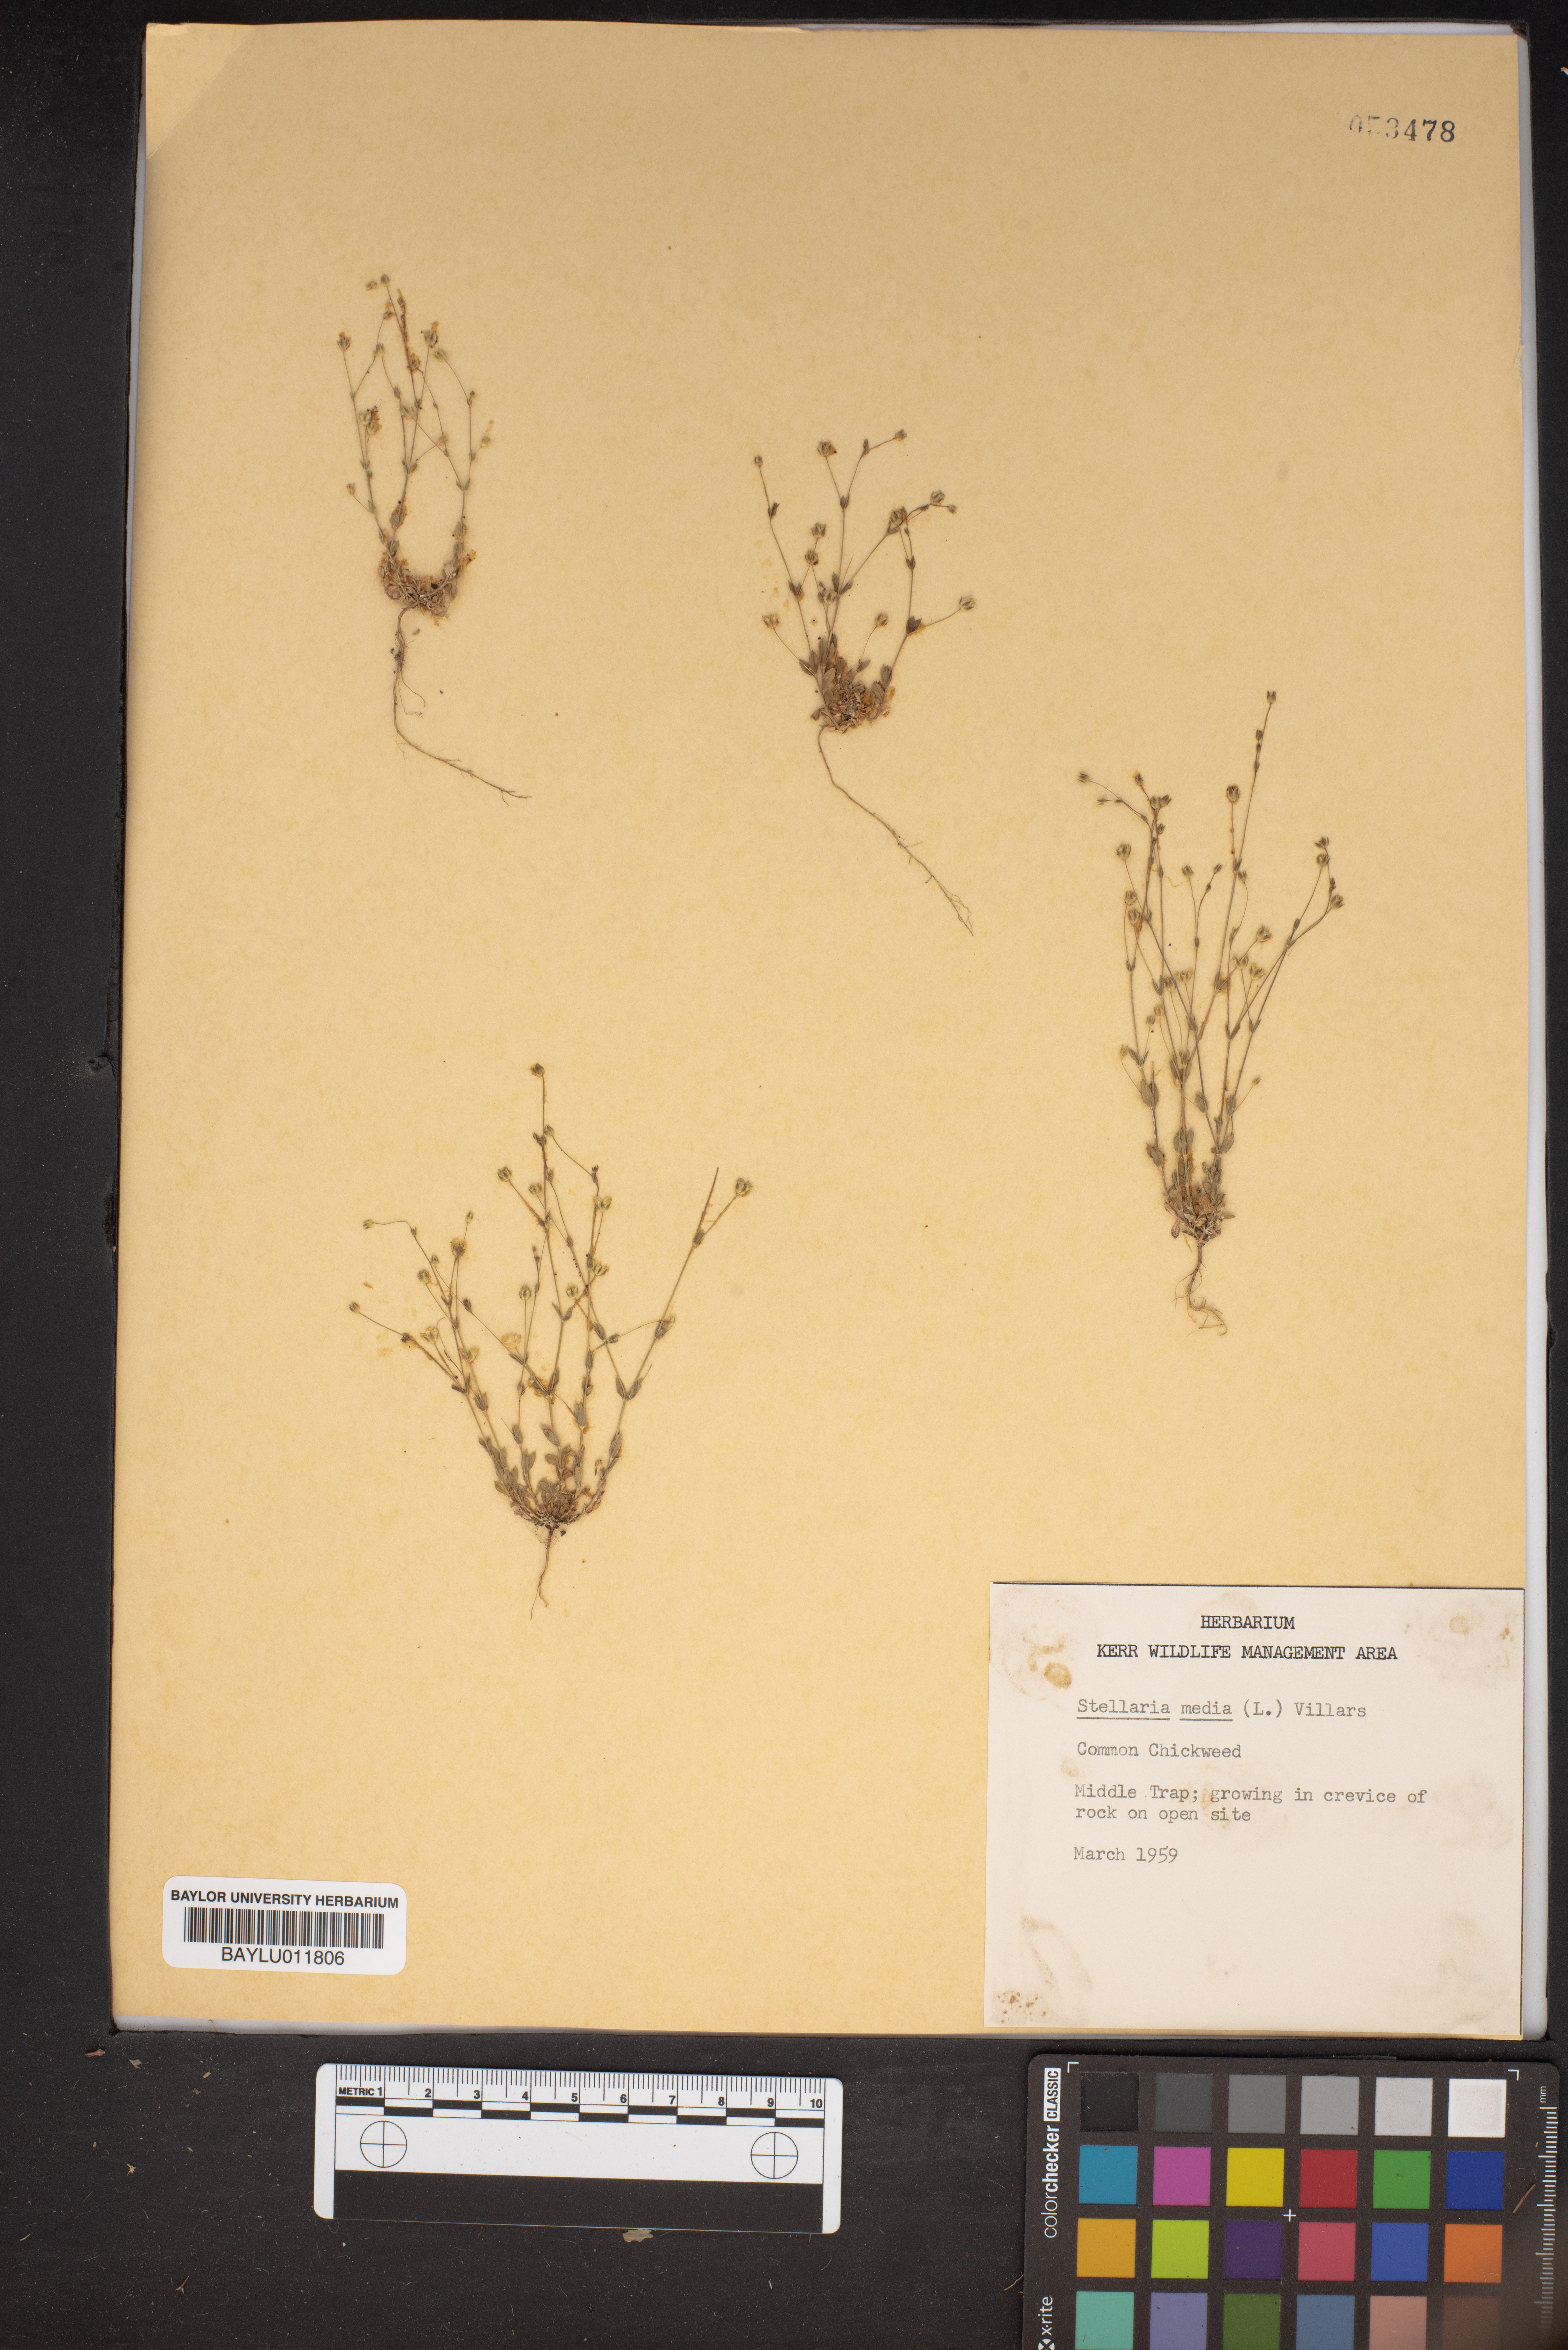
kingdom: Plantae
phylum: Tracheophyta
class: Magnoliopsida
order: Caryophyllales
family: Caryophyllaceae
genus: Stellaria
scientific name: Stellaria media
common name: Common chickweed
